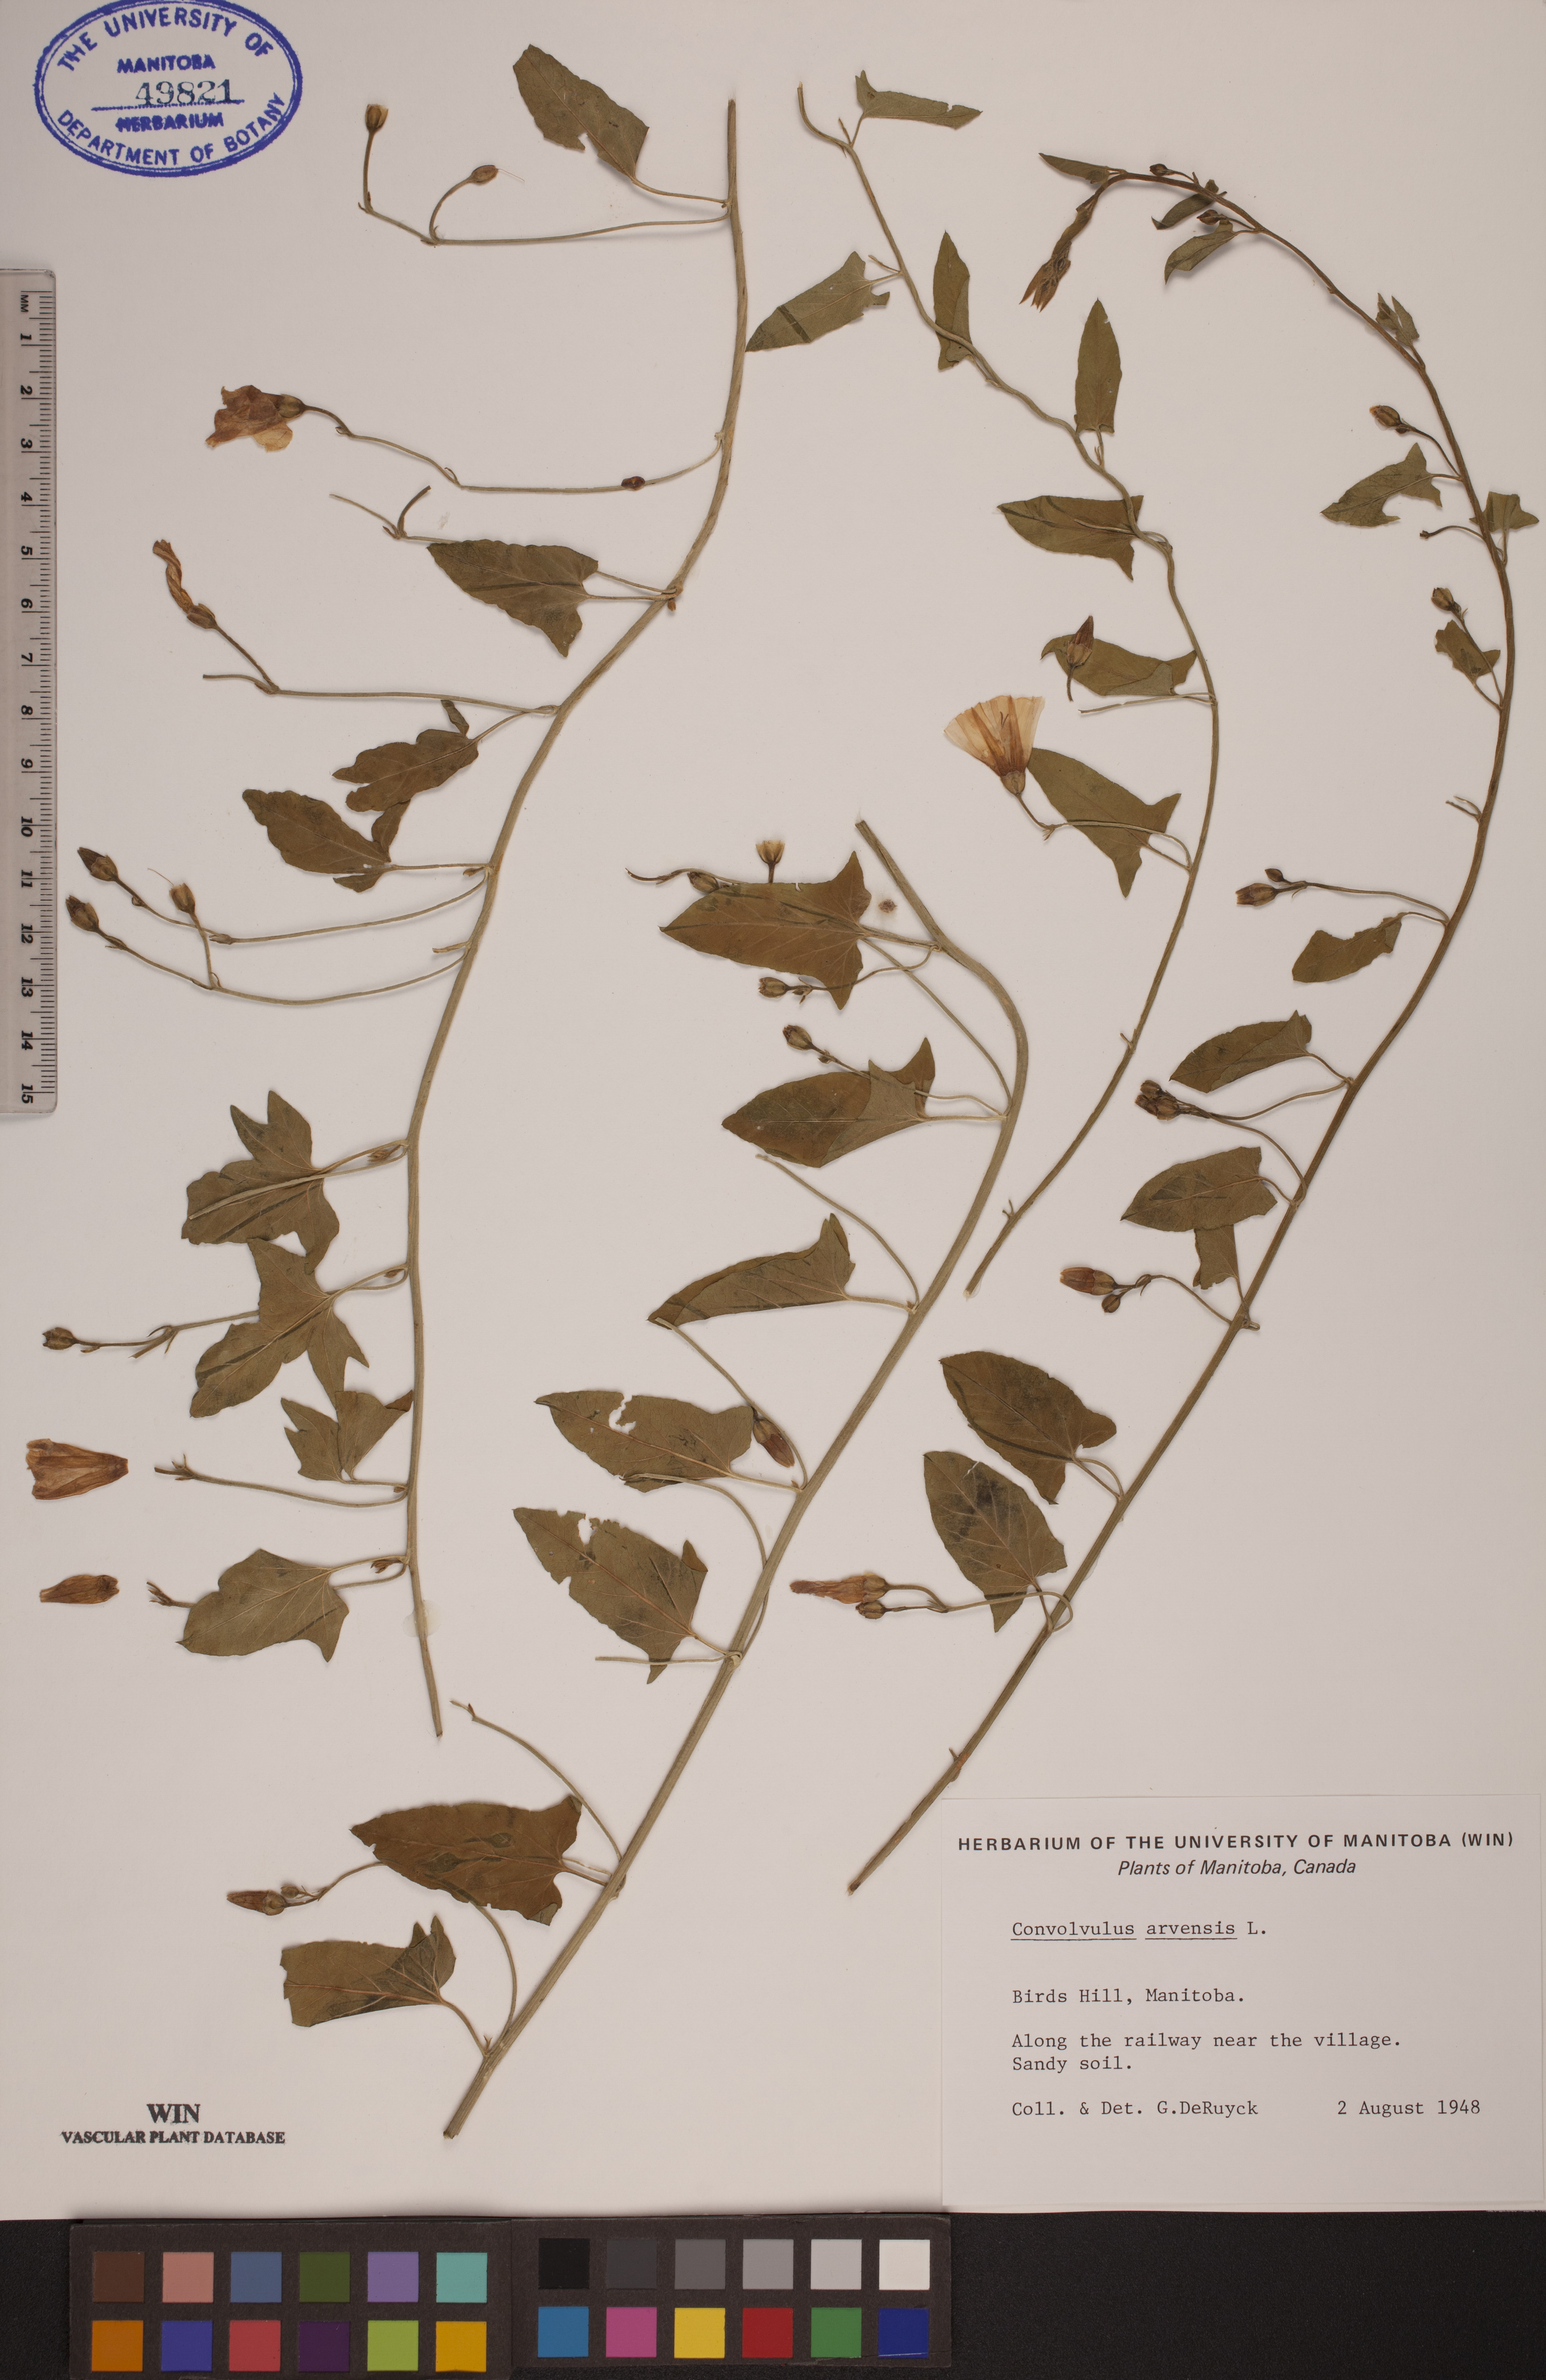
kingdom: Plantae
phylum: Tracheophyta
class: Magnoliopsida
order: Solanales
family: Convolvulaceae
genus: Convolvulus
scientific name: Convolvulus arvensis
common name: Field bindweed
